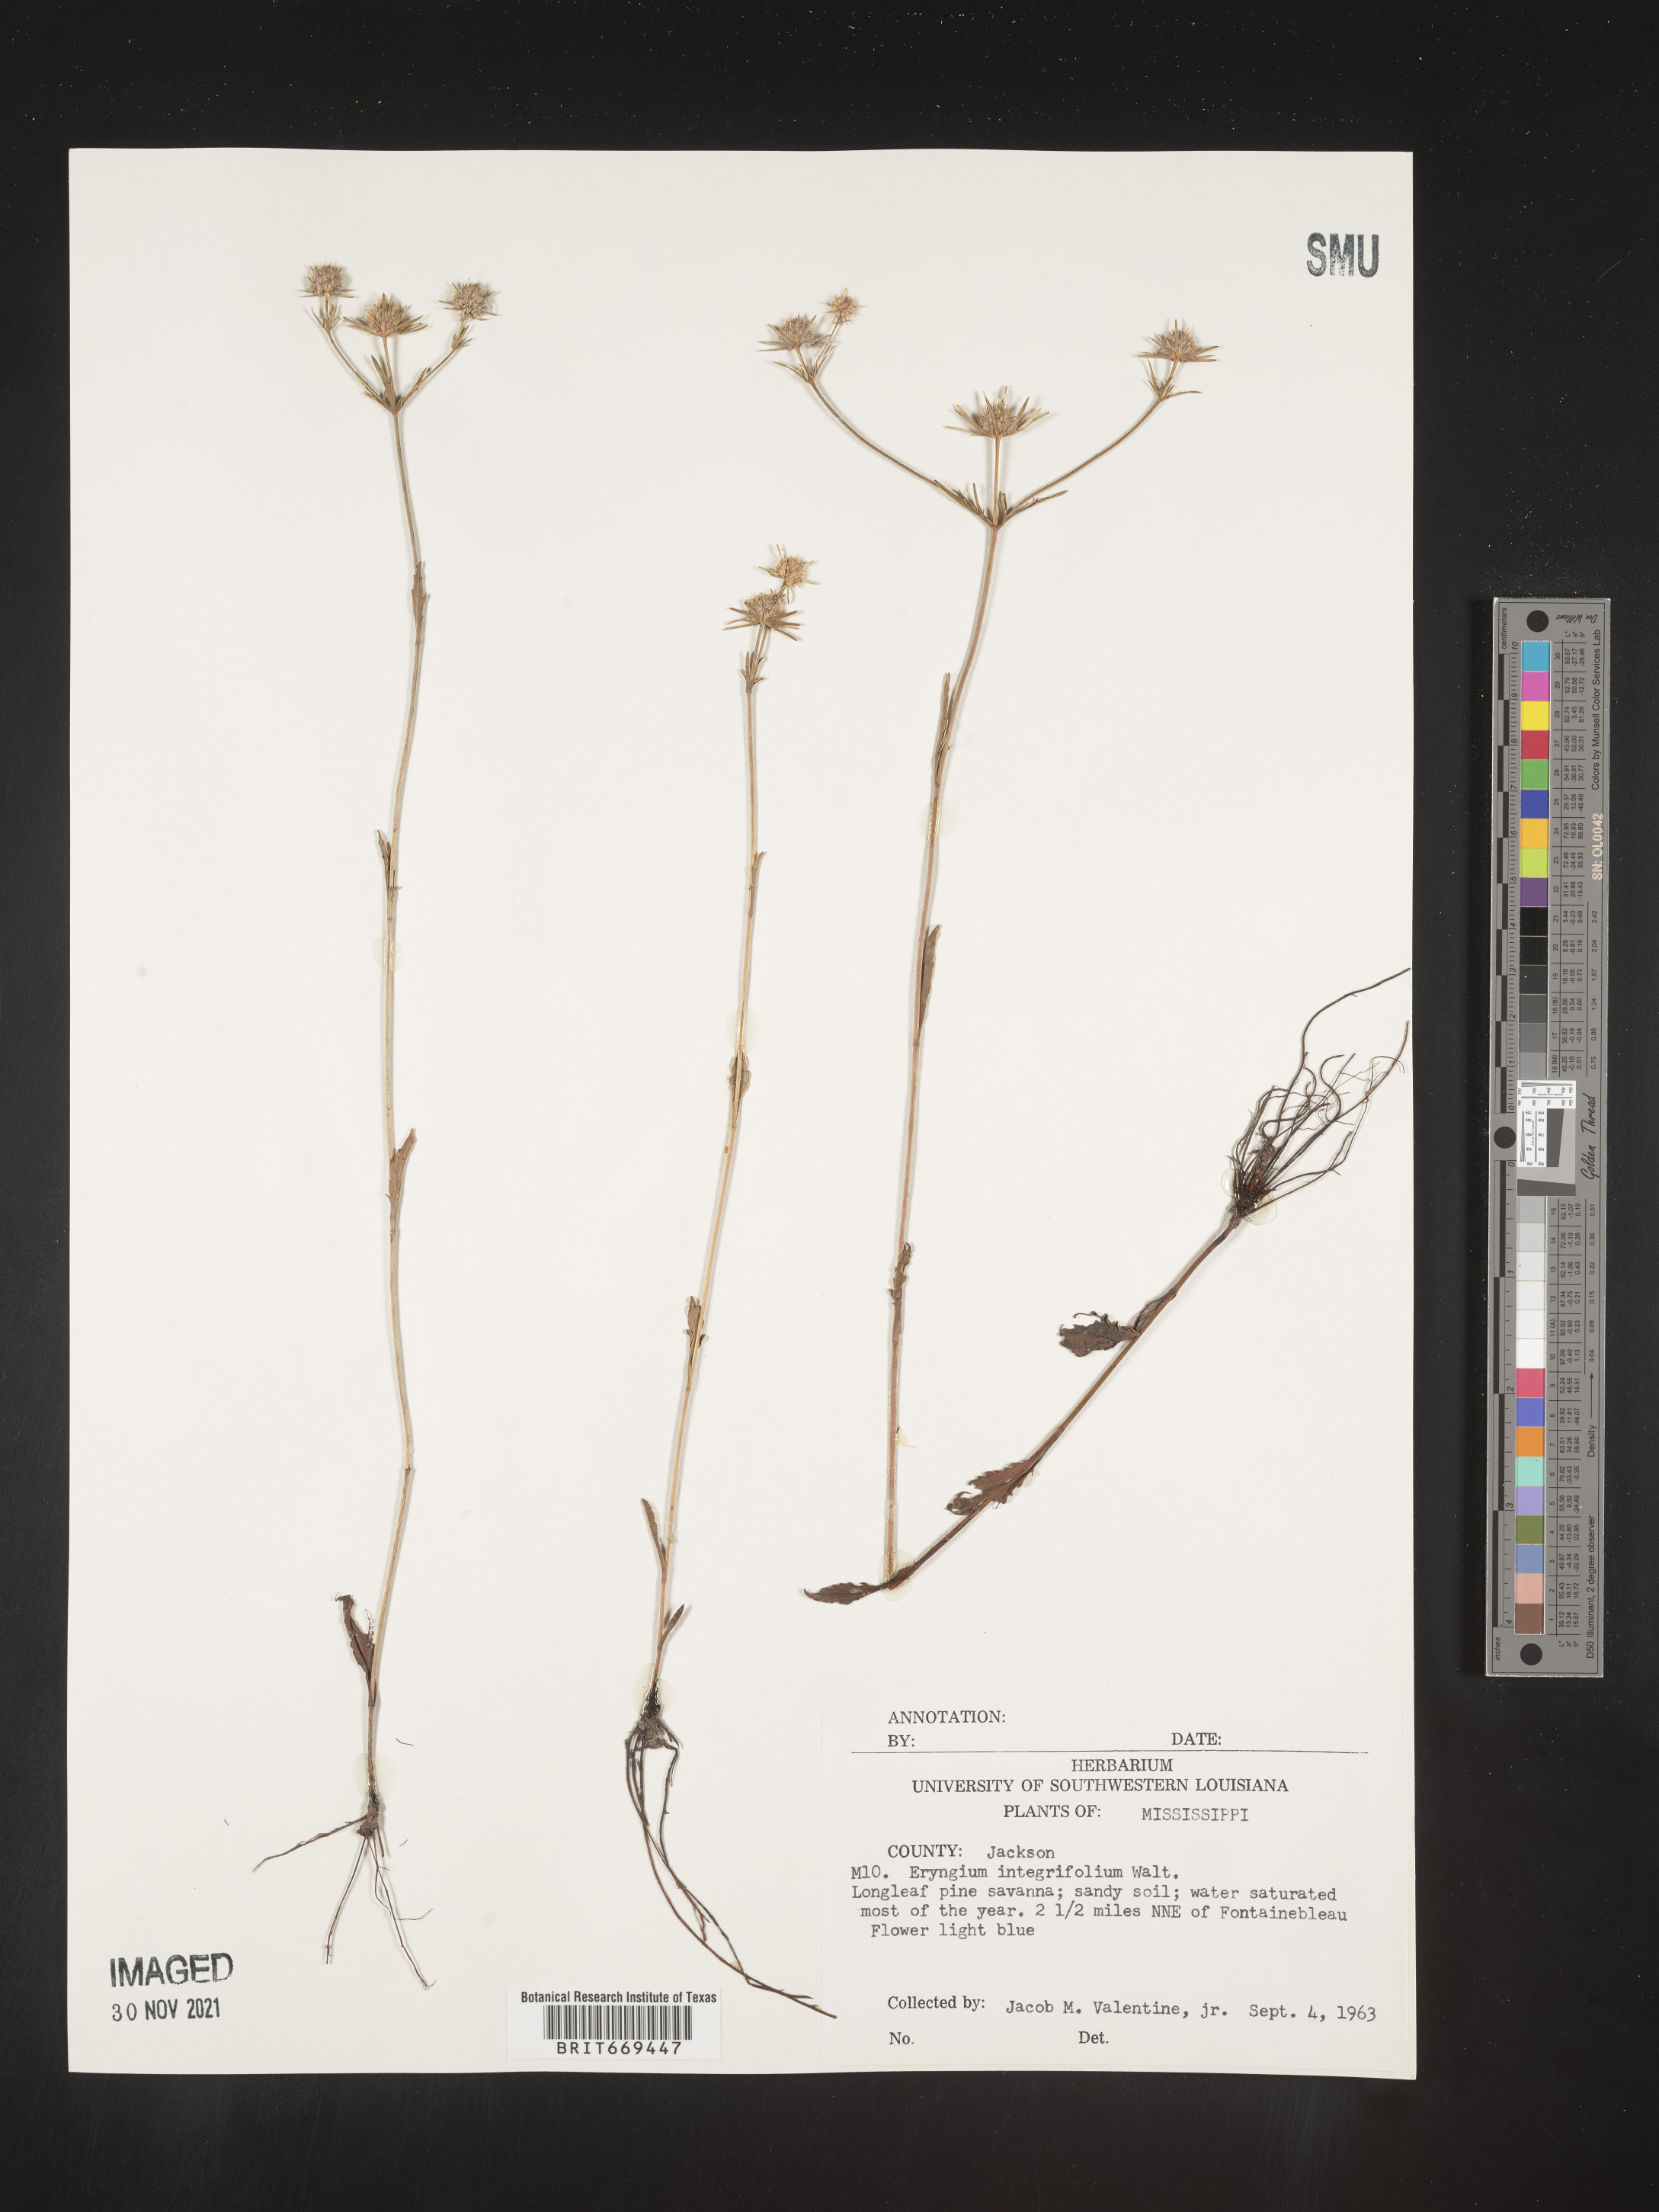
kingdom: Plantae
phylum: Tracheophyta
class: Magnoliopsida
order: Apiales
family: Apiaceae
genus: Eryngium
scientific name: Eryngium integrifolium
